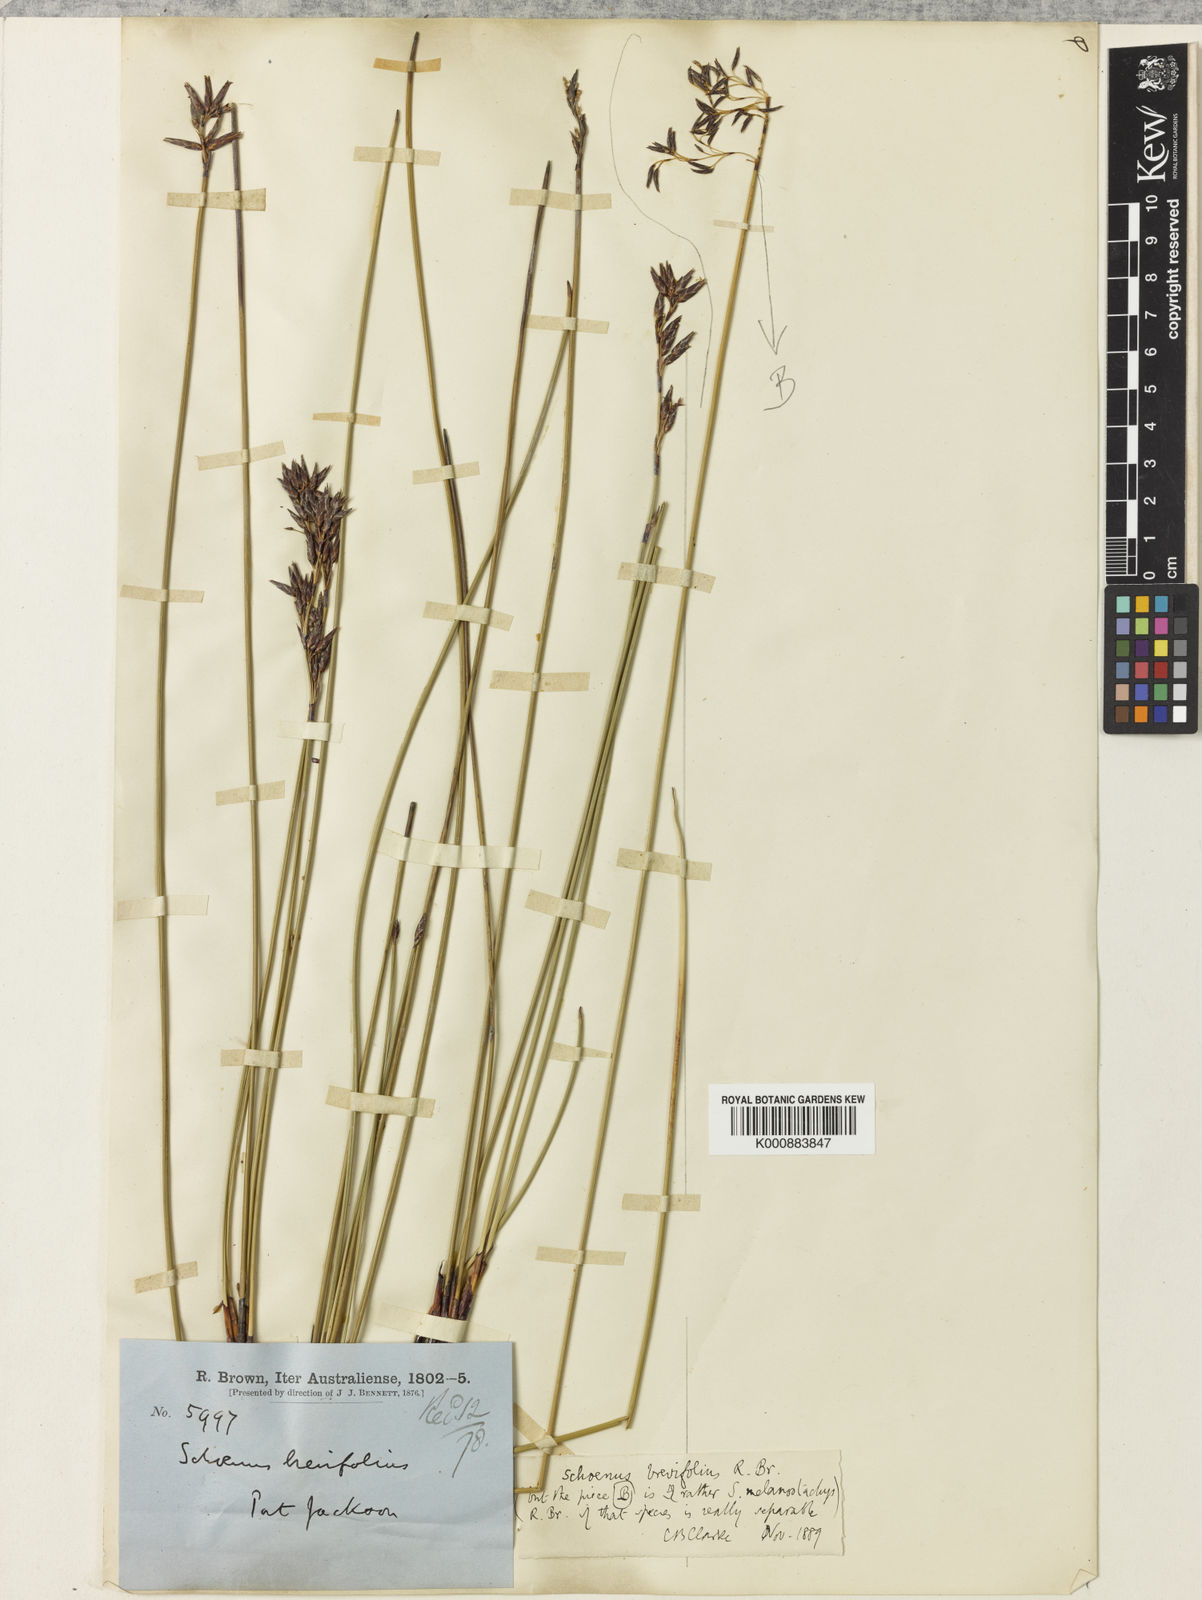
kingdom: Plantae
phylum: Tracheophyta
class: Liliopsida
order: Poales
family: Cyperaceae
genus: Schoenus
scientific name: Schoenus brevifolius
